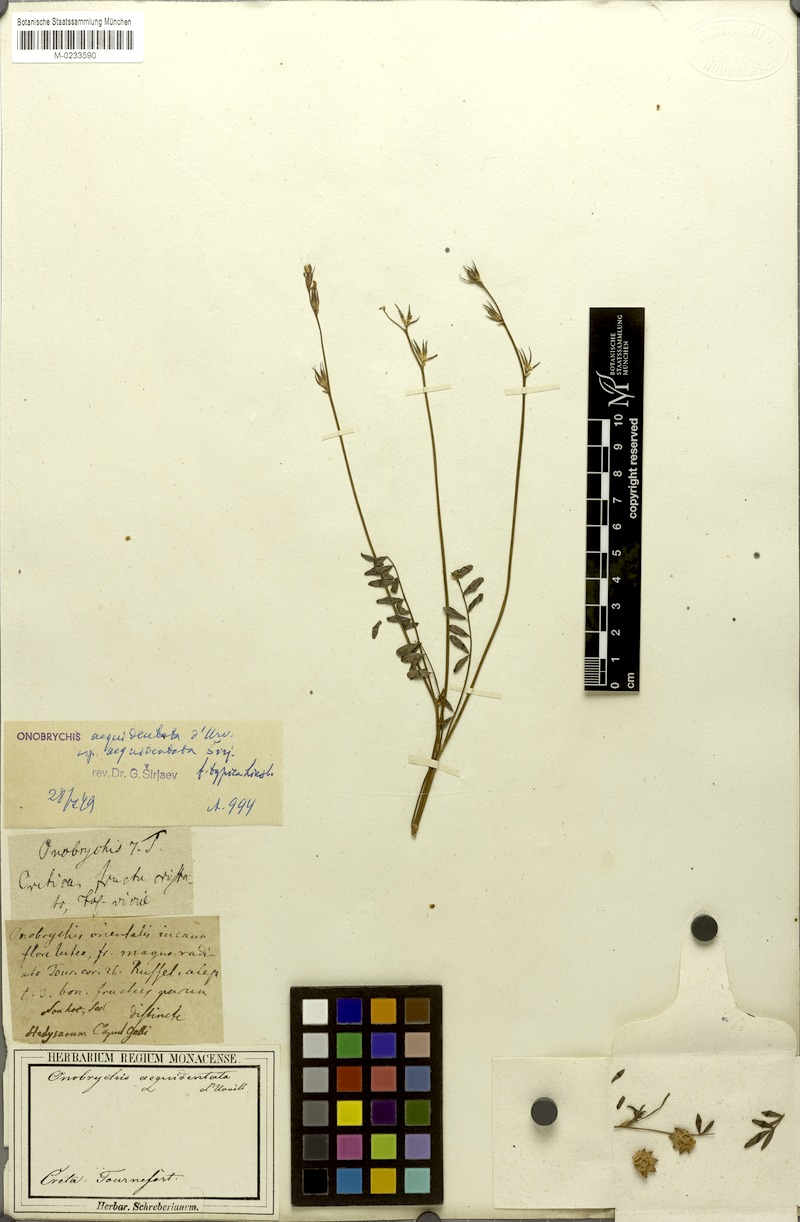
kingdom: Plantae
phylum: Tracheophyta
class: Magnoliopsida
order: Fabales
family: Fabaceae
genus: Onobrychis
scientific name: Onobrychis aequidentata
